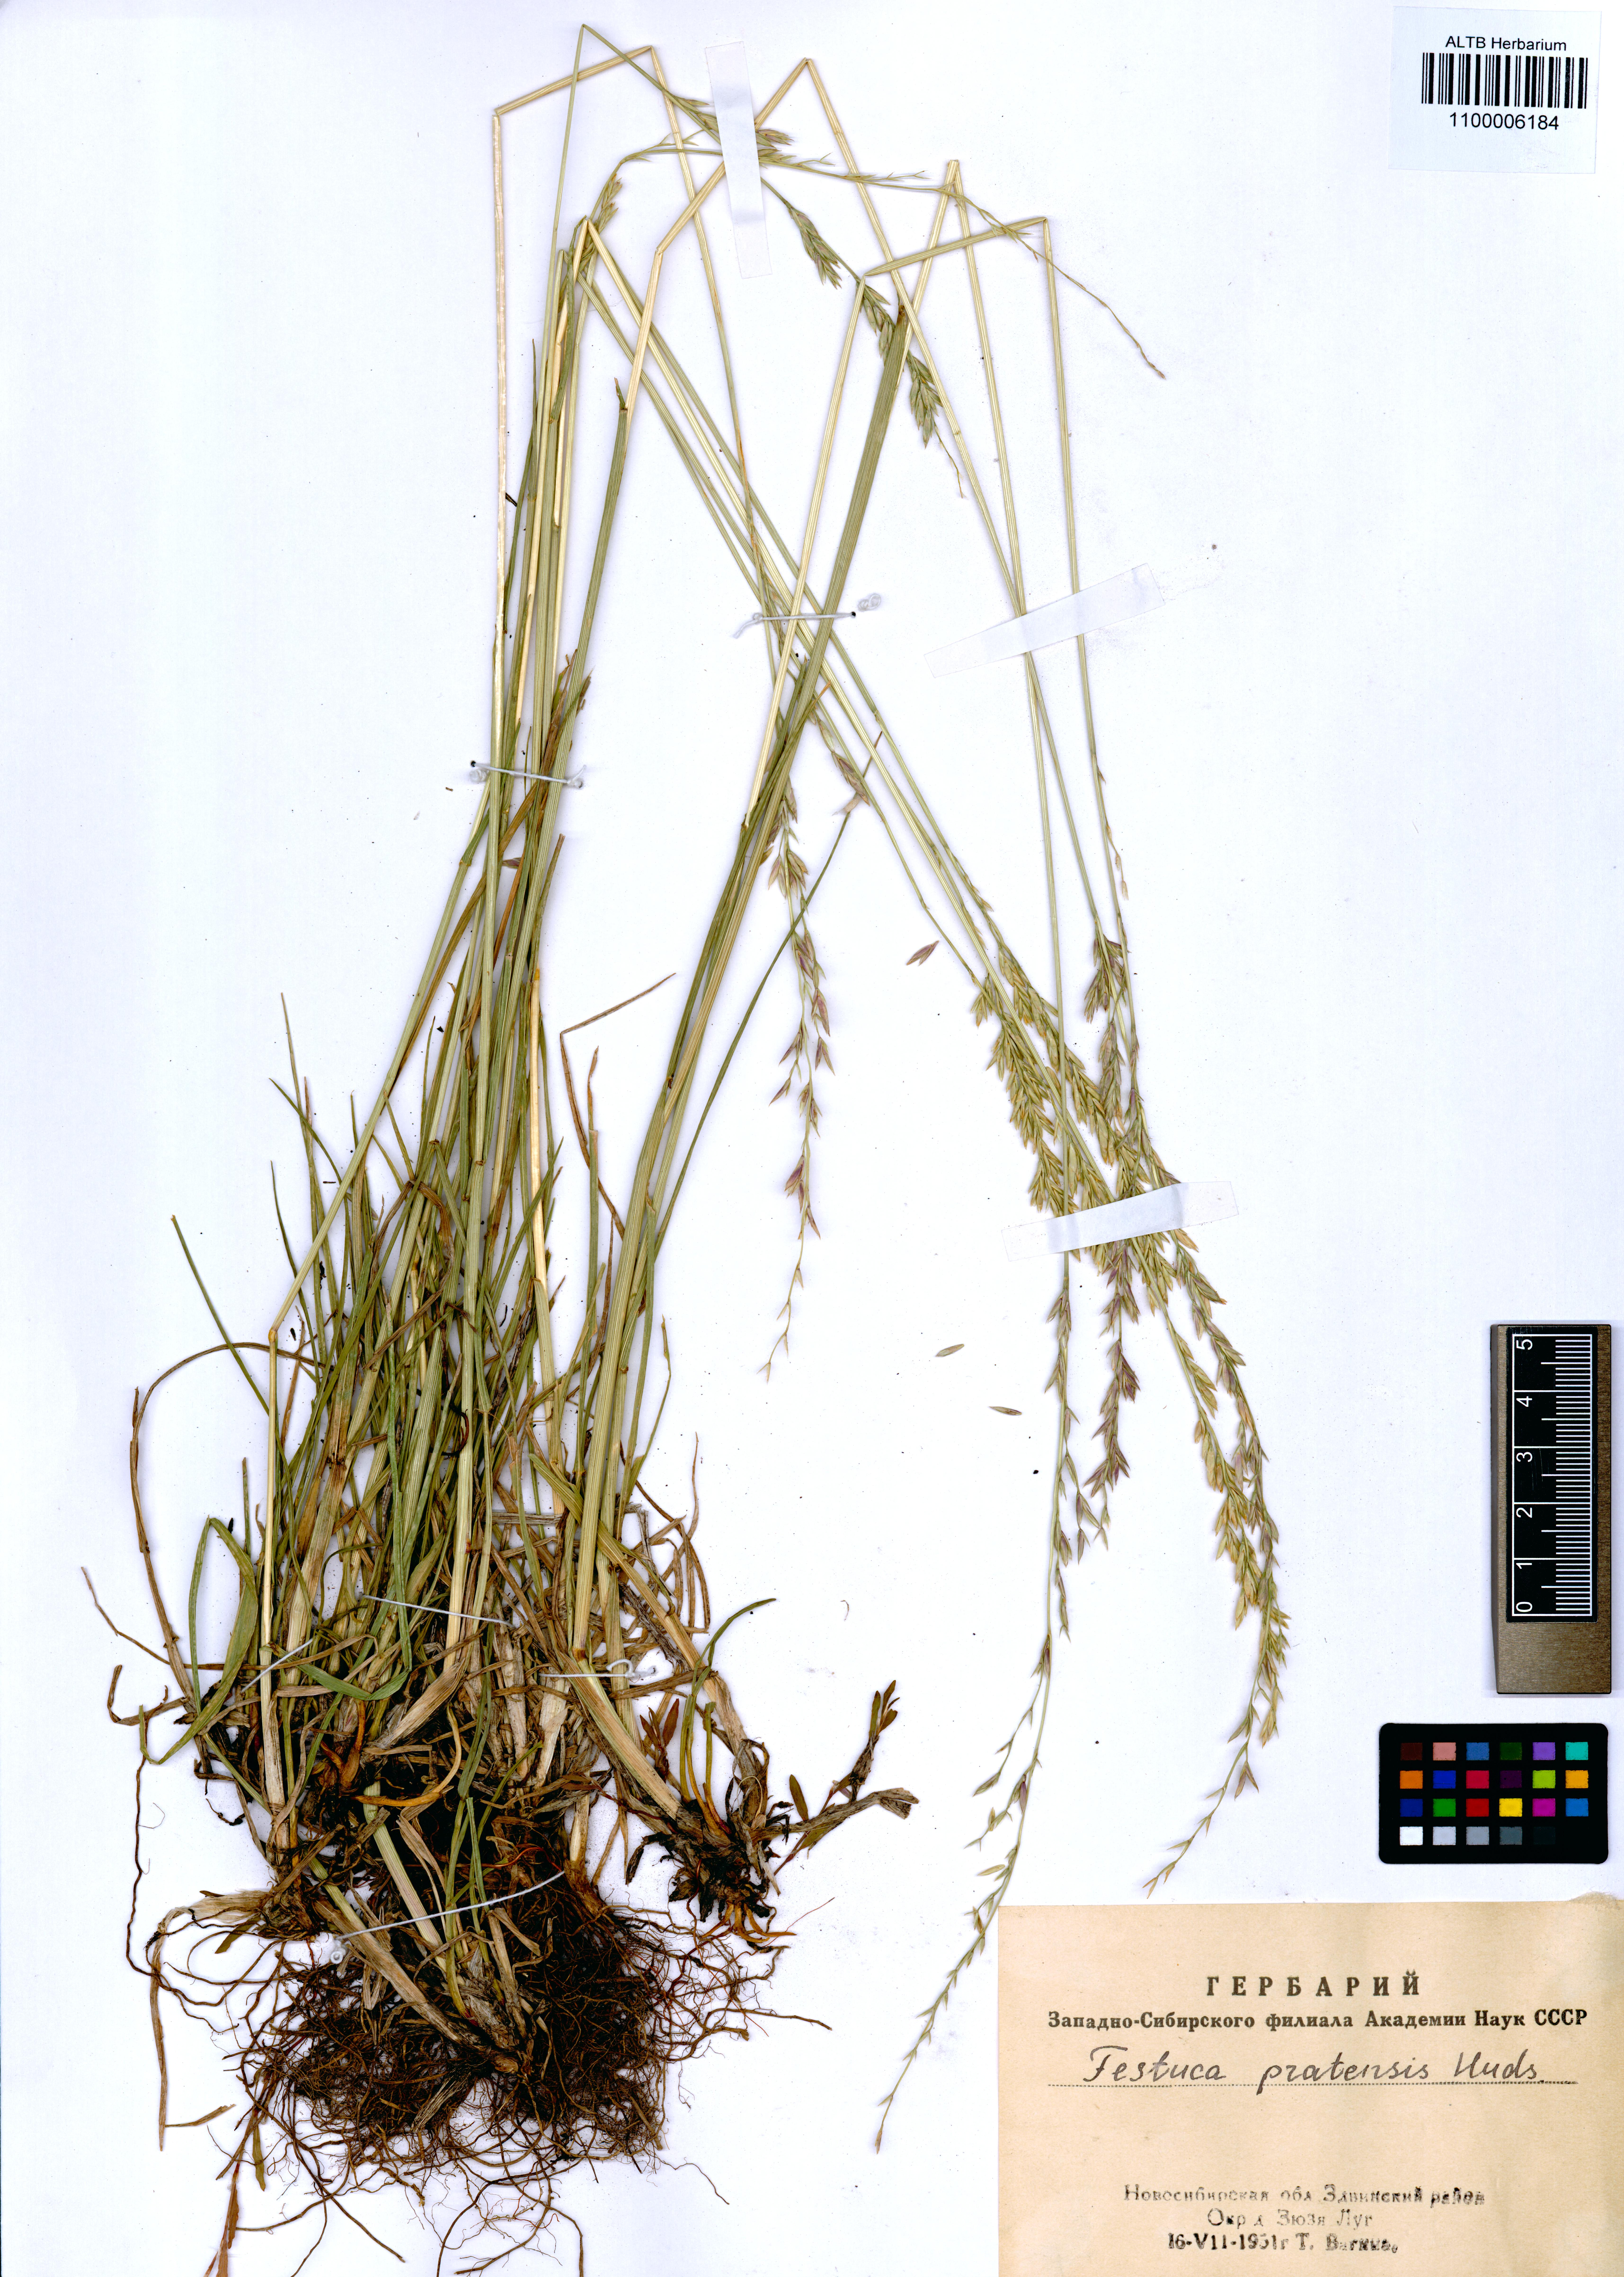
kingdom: Plantae
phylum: Tracheophyta
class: Liliopsida
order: Poales
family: Poaceae
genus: Lolium
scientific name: Lolium pratense
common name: Dover grass
